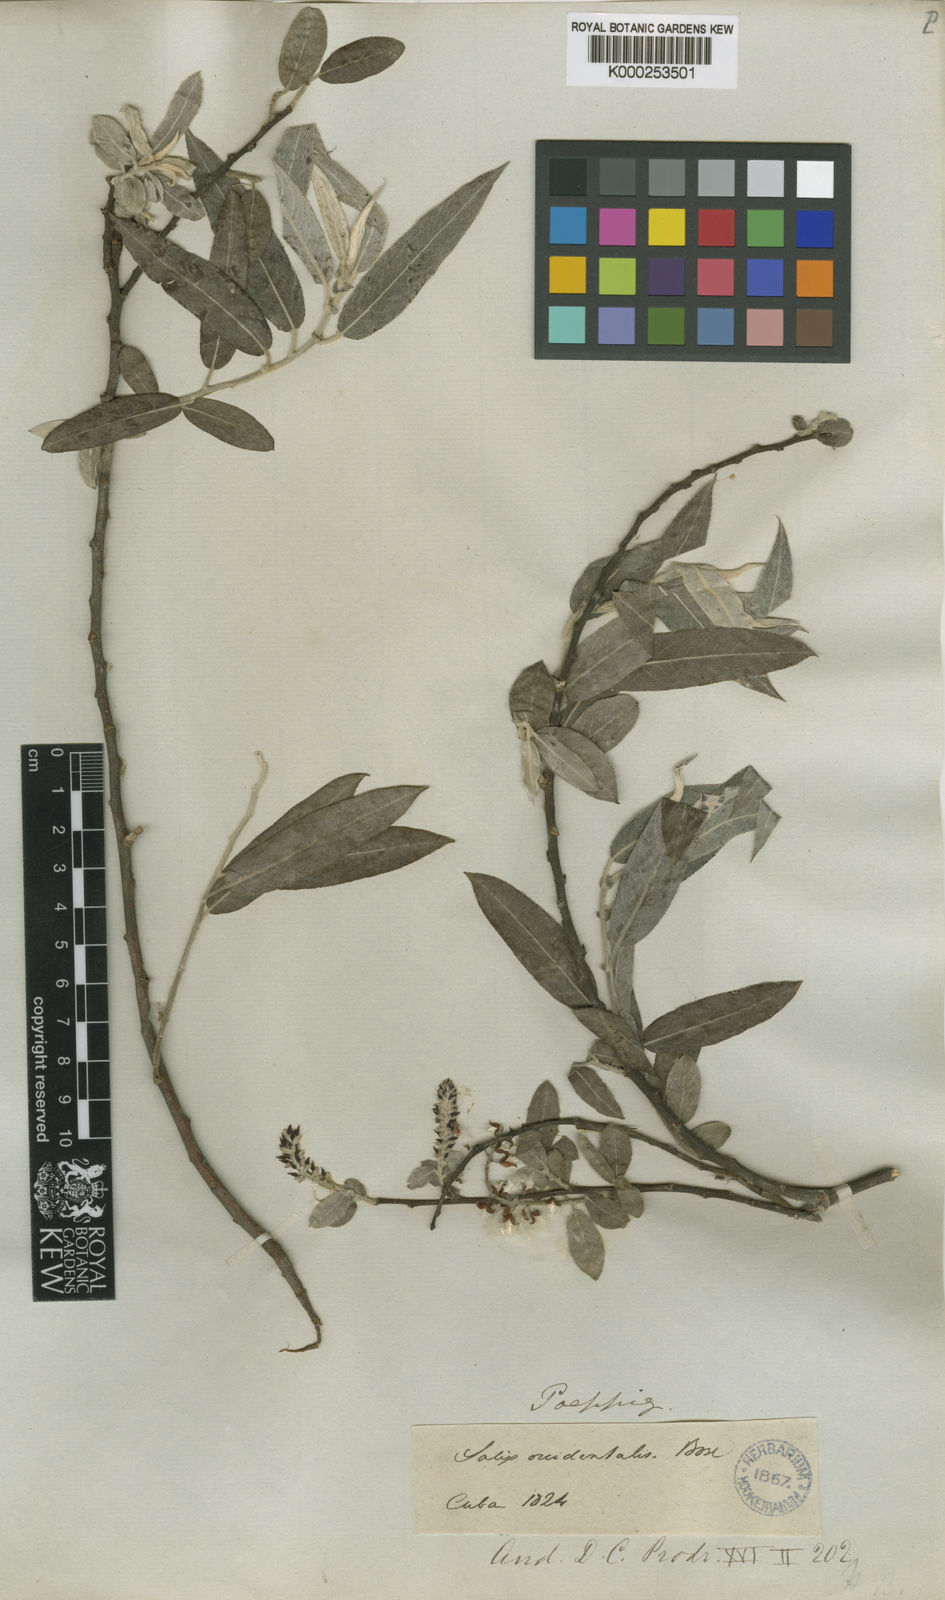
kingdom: Plantae
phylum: Tracheophyta
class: Magnoliopsida
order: Malpighiales
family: Salicaceae
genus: Salix
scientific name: Salix caroliniana
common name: Carolina willow
